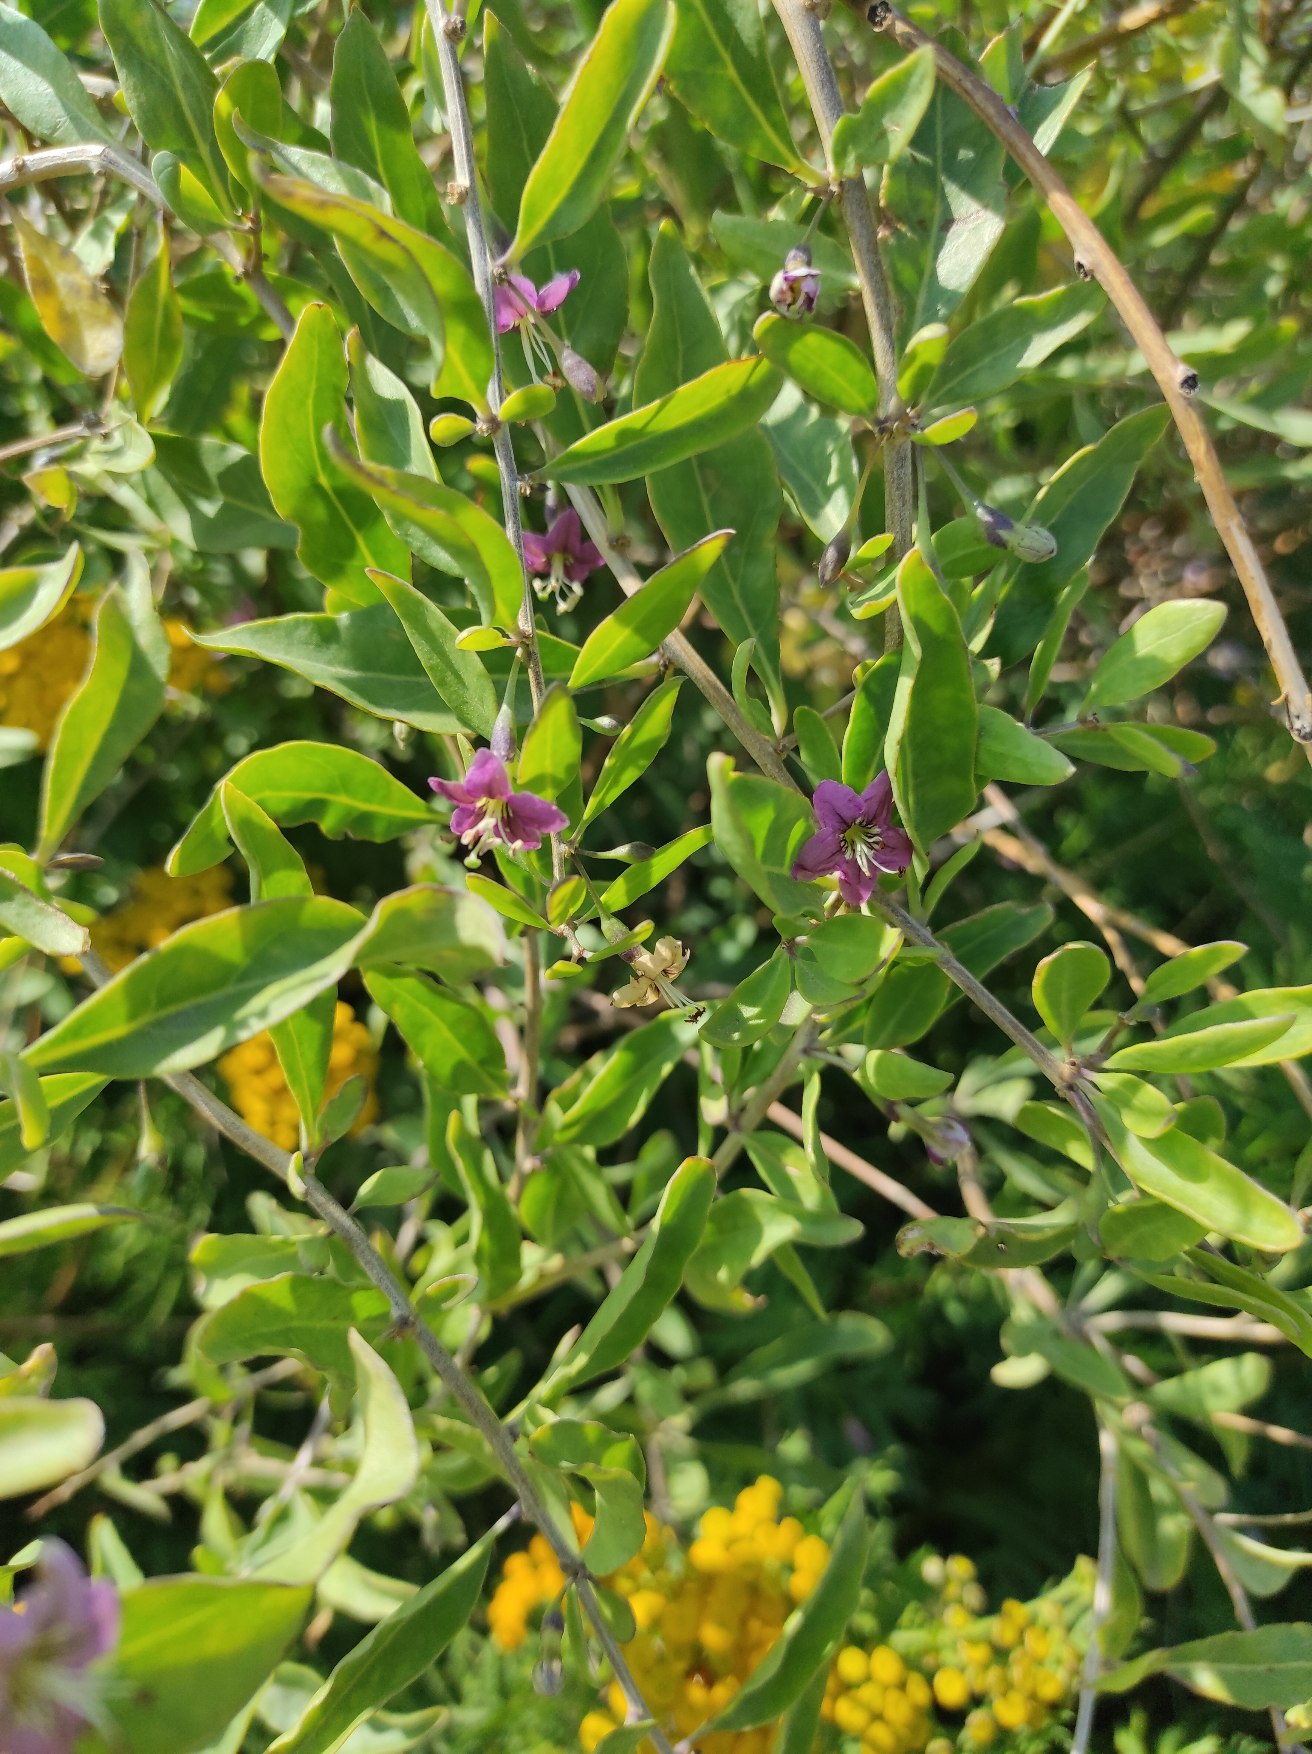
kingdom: Plantae
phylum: Tracheophyta
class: Magnoliopsida
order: Solanales
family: Solanaceae
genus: Lycium
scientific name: Lycium barbarum
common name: Bukketorn
